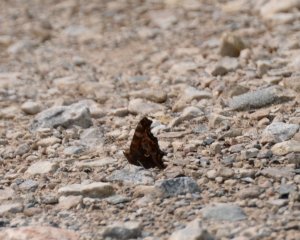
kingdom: Animalia
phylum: Arthropoda
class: Insecta
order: Lepidoptera
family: Nymphalidae
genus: Polygonia
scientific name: Polygonia comma
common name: Eastern Comma
